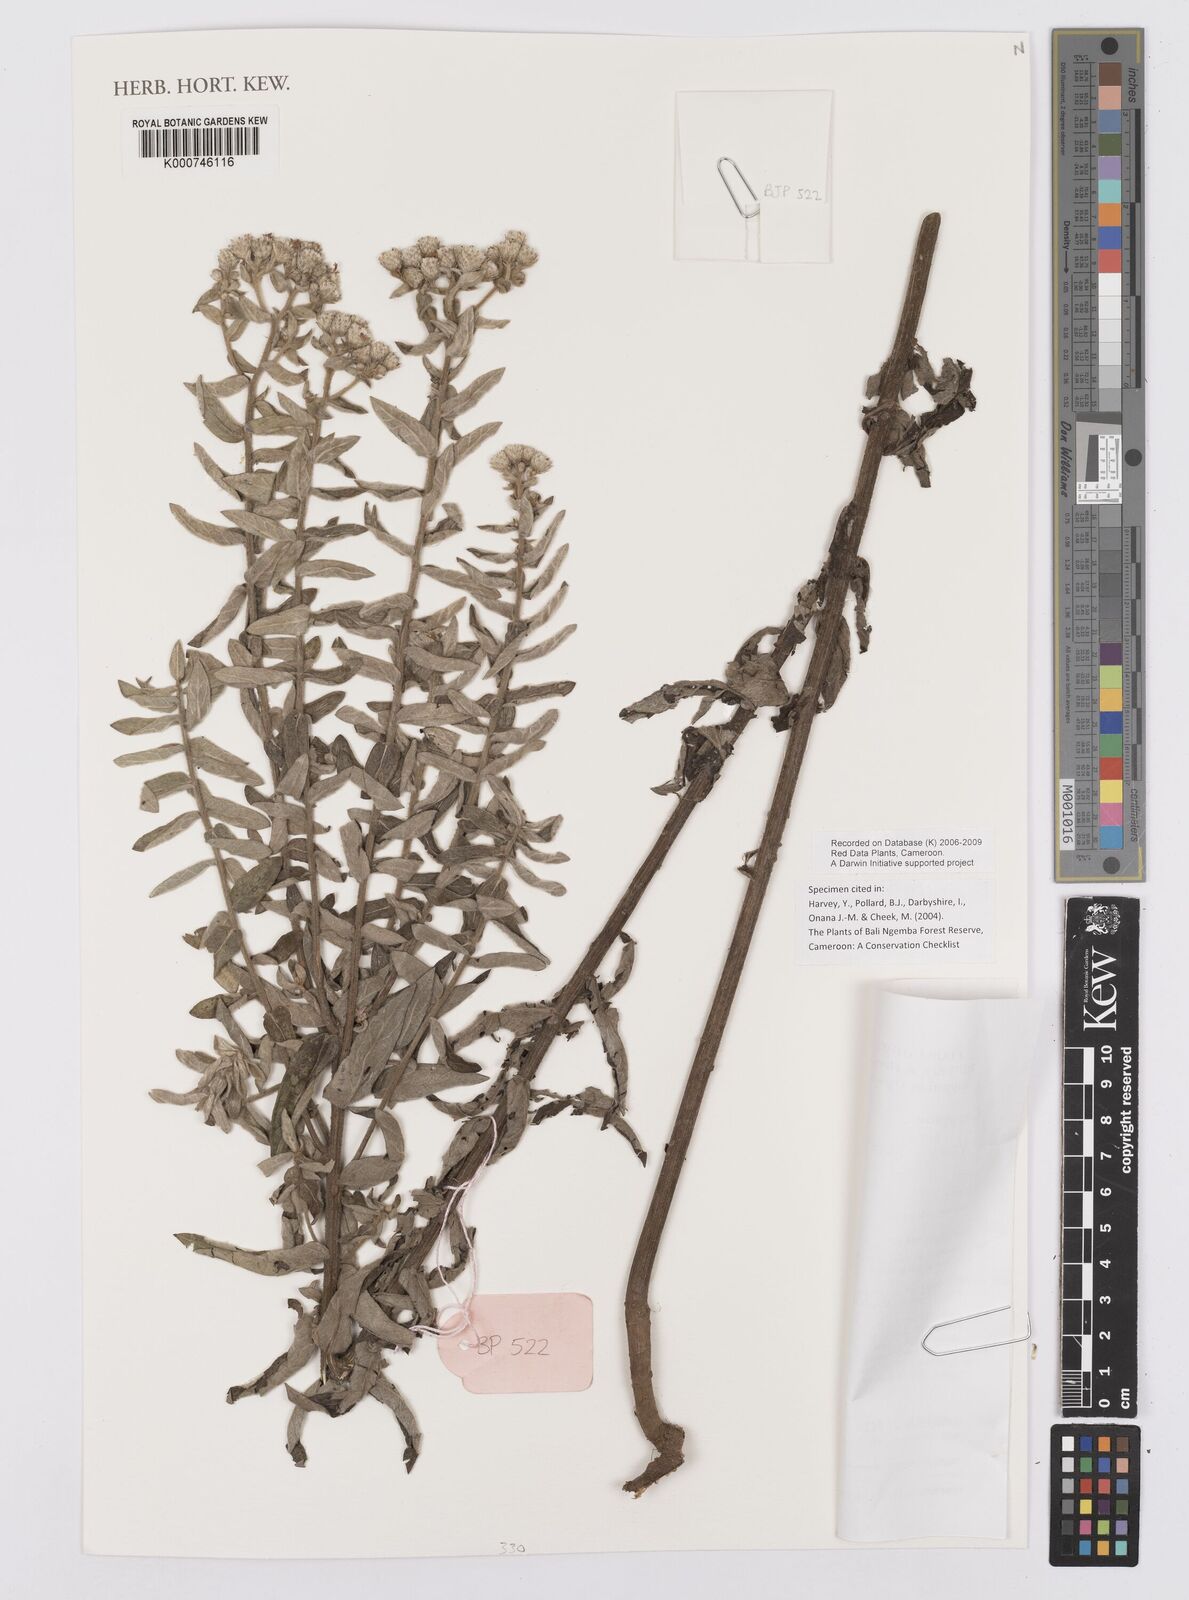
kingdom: Plantae
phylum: Tracheophyta
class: Magnoliopsida
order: Asterales
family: Asteraceae
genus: Vernoniastrum
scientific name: Vernoniastrum nestor
